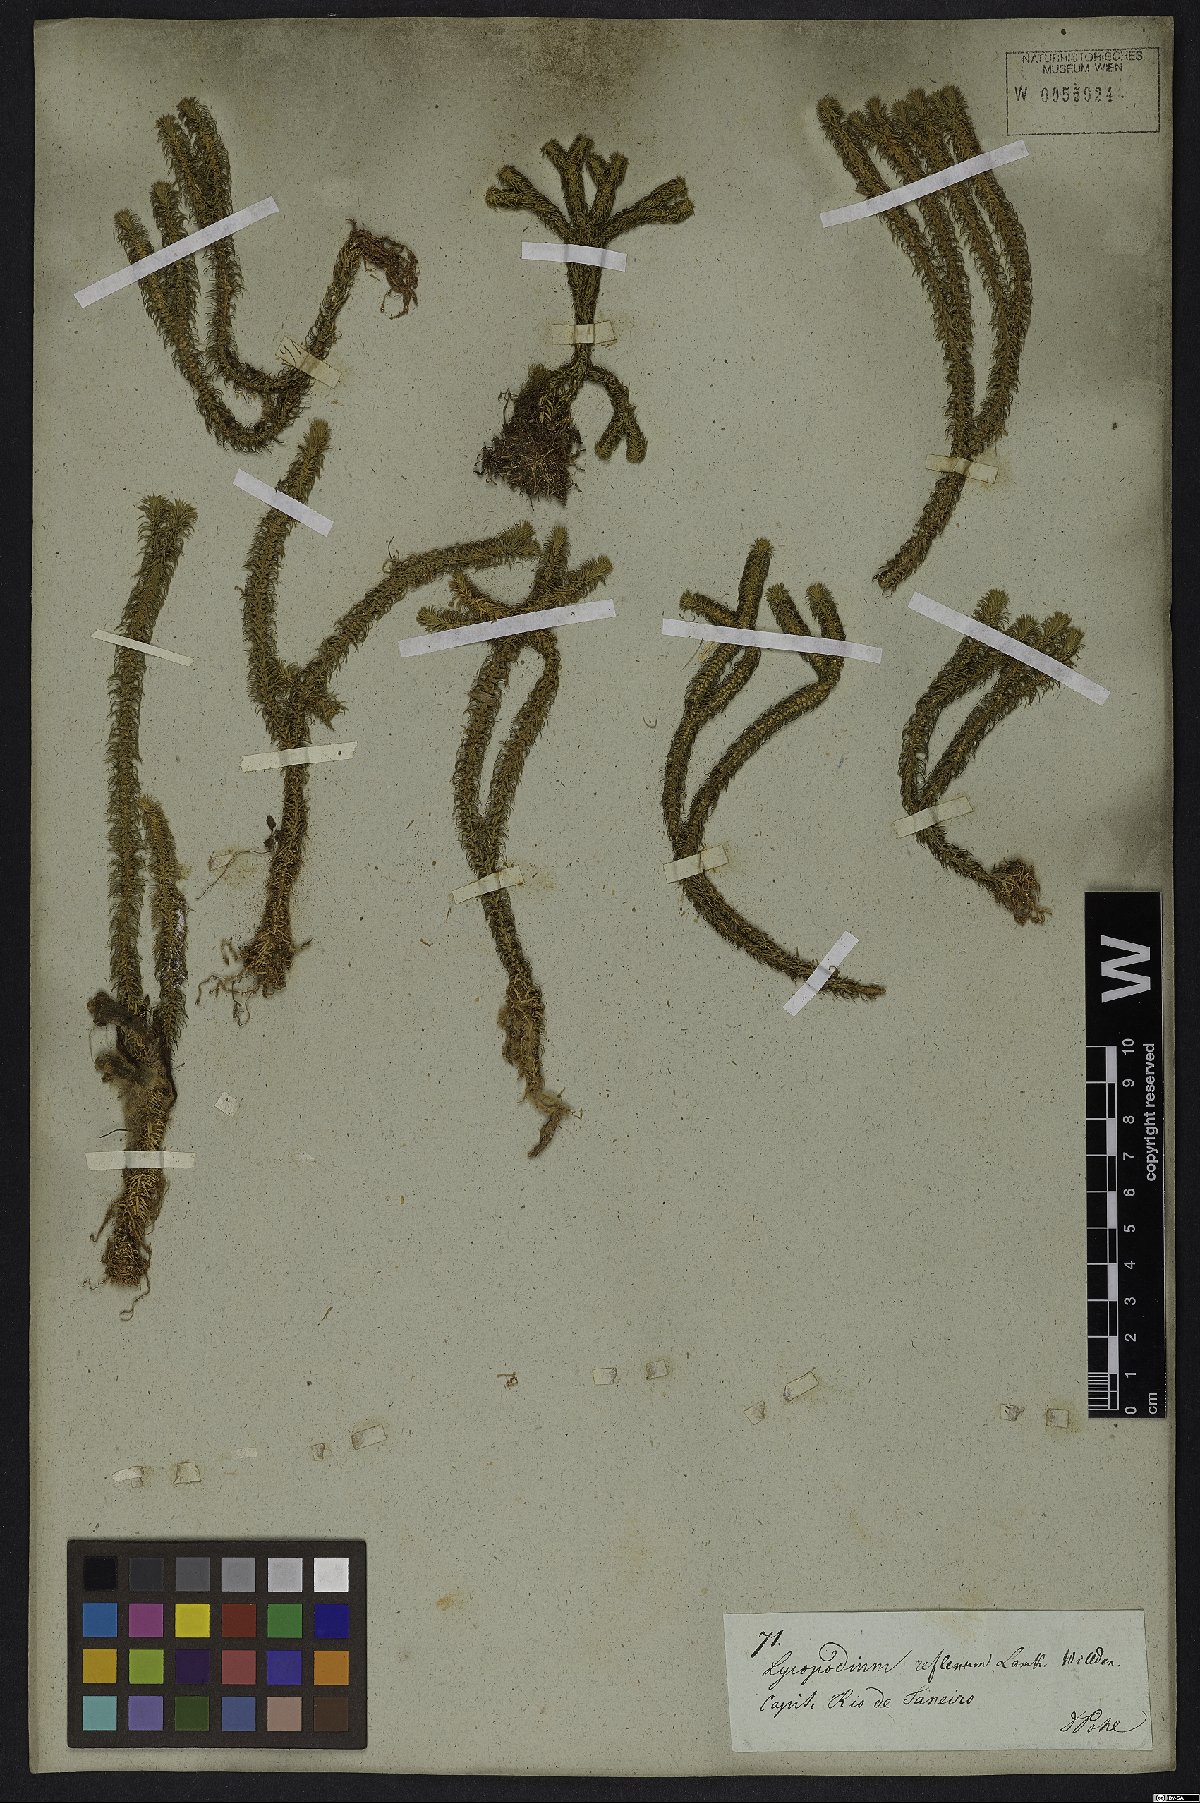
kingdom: Plantae
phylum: Tracheophyta
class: Lycopodiopsida
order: Lycopodiales
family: Lycopodiaceae
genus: Phlegmariurus
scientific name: Phlegmariurus reflexus
